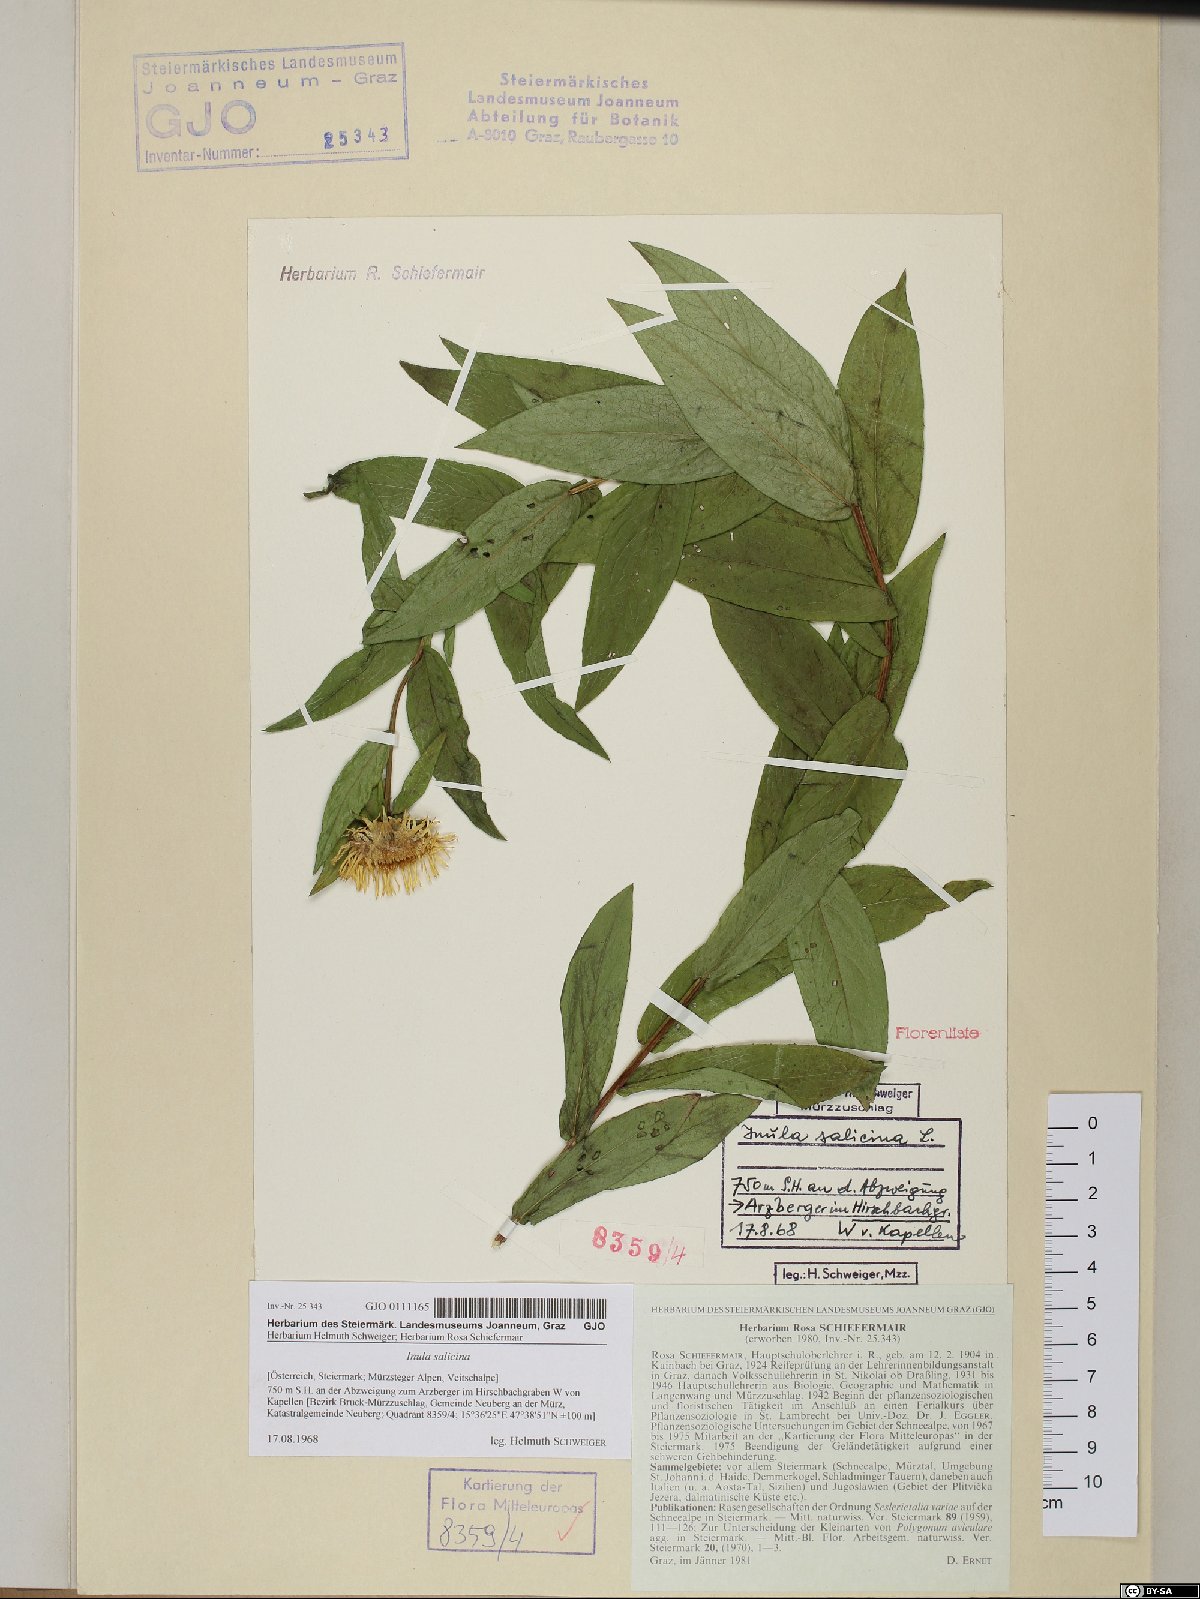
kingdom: Plantae
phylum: Tracheophyta
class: Magnoliopsida
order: Asterales
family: Asteraceae
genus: Pentanema
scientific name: Pentanema salicinum
